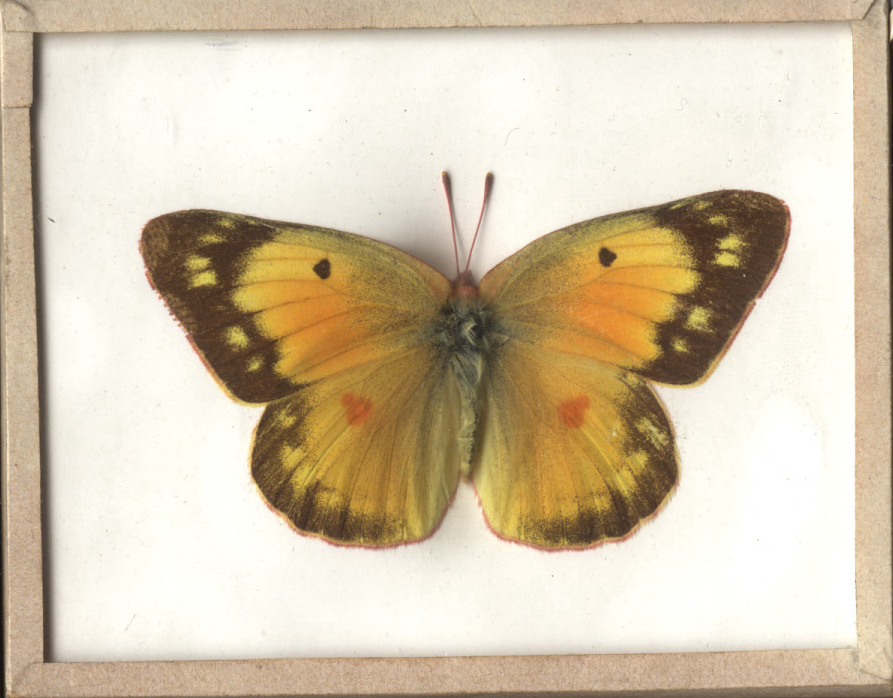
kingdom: Animalia
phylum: Arthropoda
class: Insecta
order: Lepidoptera
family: Pieridae
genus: Colias
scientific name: Colias eurytheme
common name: Orange Sulphur
